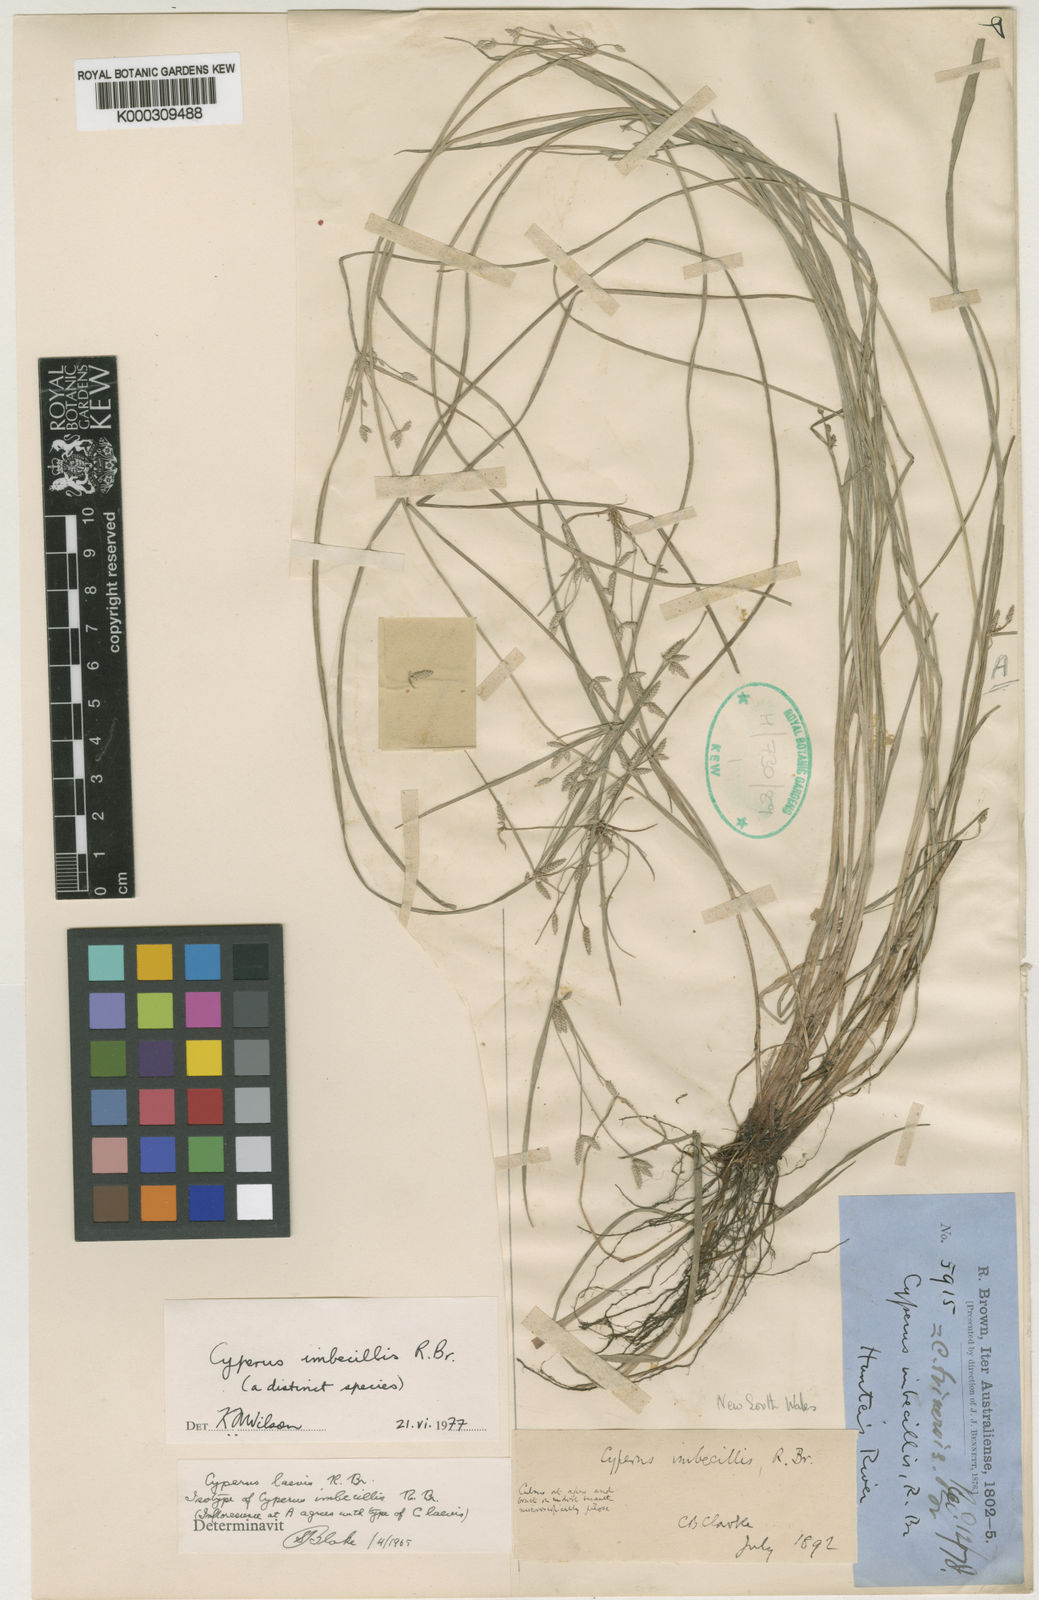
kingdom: Plantae
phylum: Tracheophyta
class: Liliopsida
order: Poales
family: Cyperaceae
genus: Cyperus
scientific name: Cyperus imbecillis
